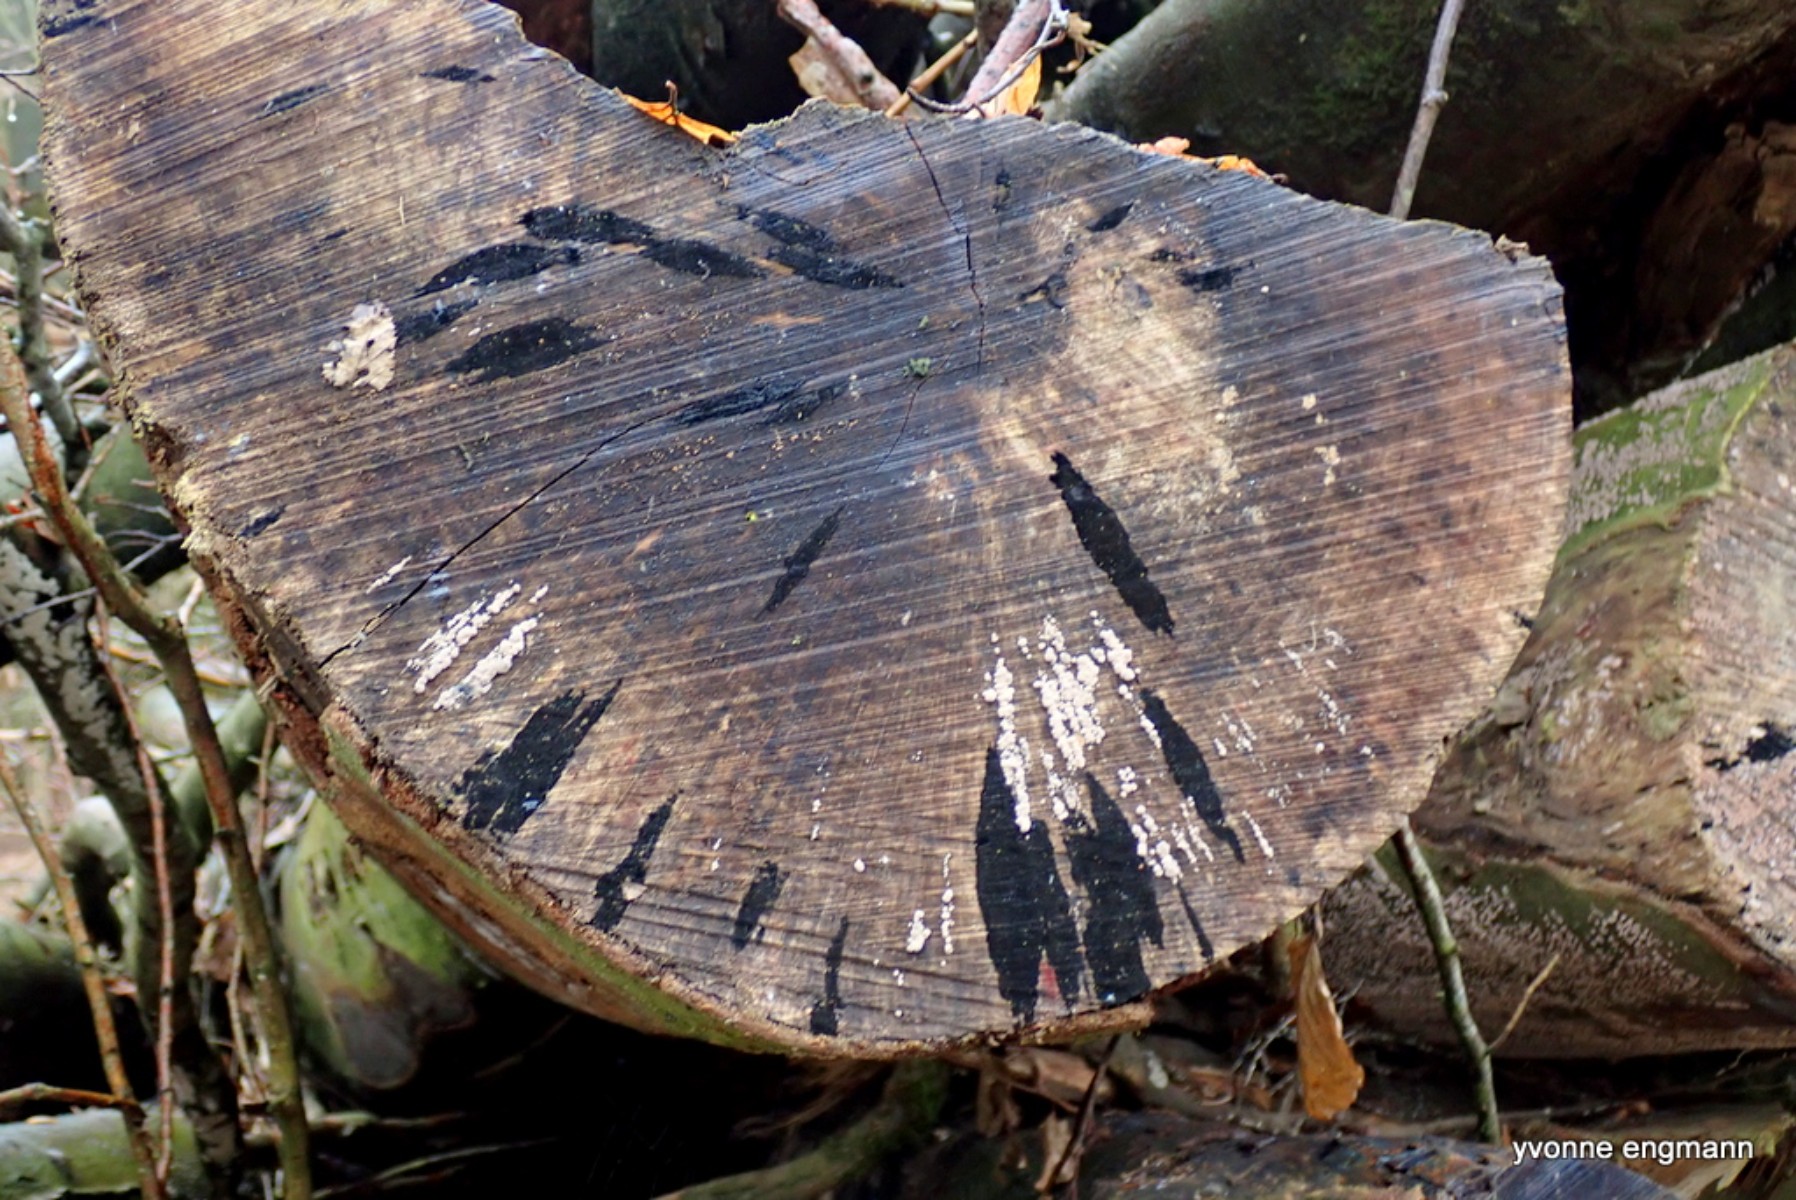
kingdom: Fungi
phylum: Ascomycota
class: Leotiomycetes
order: Helotiales
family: Helotiaceae
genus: Bispora
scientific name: Bispora pallescens
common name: måtte-snitskive
